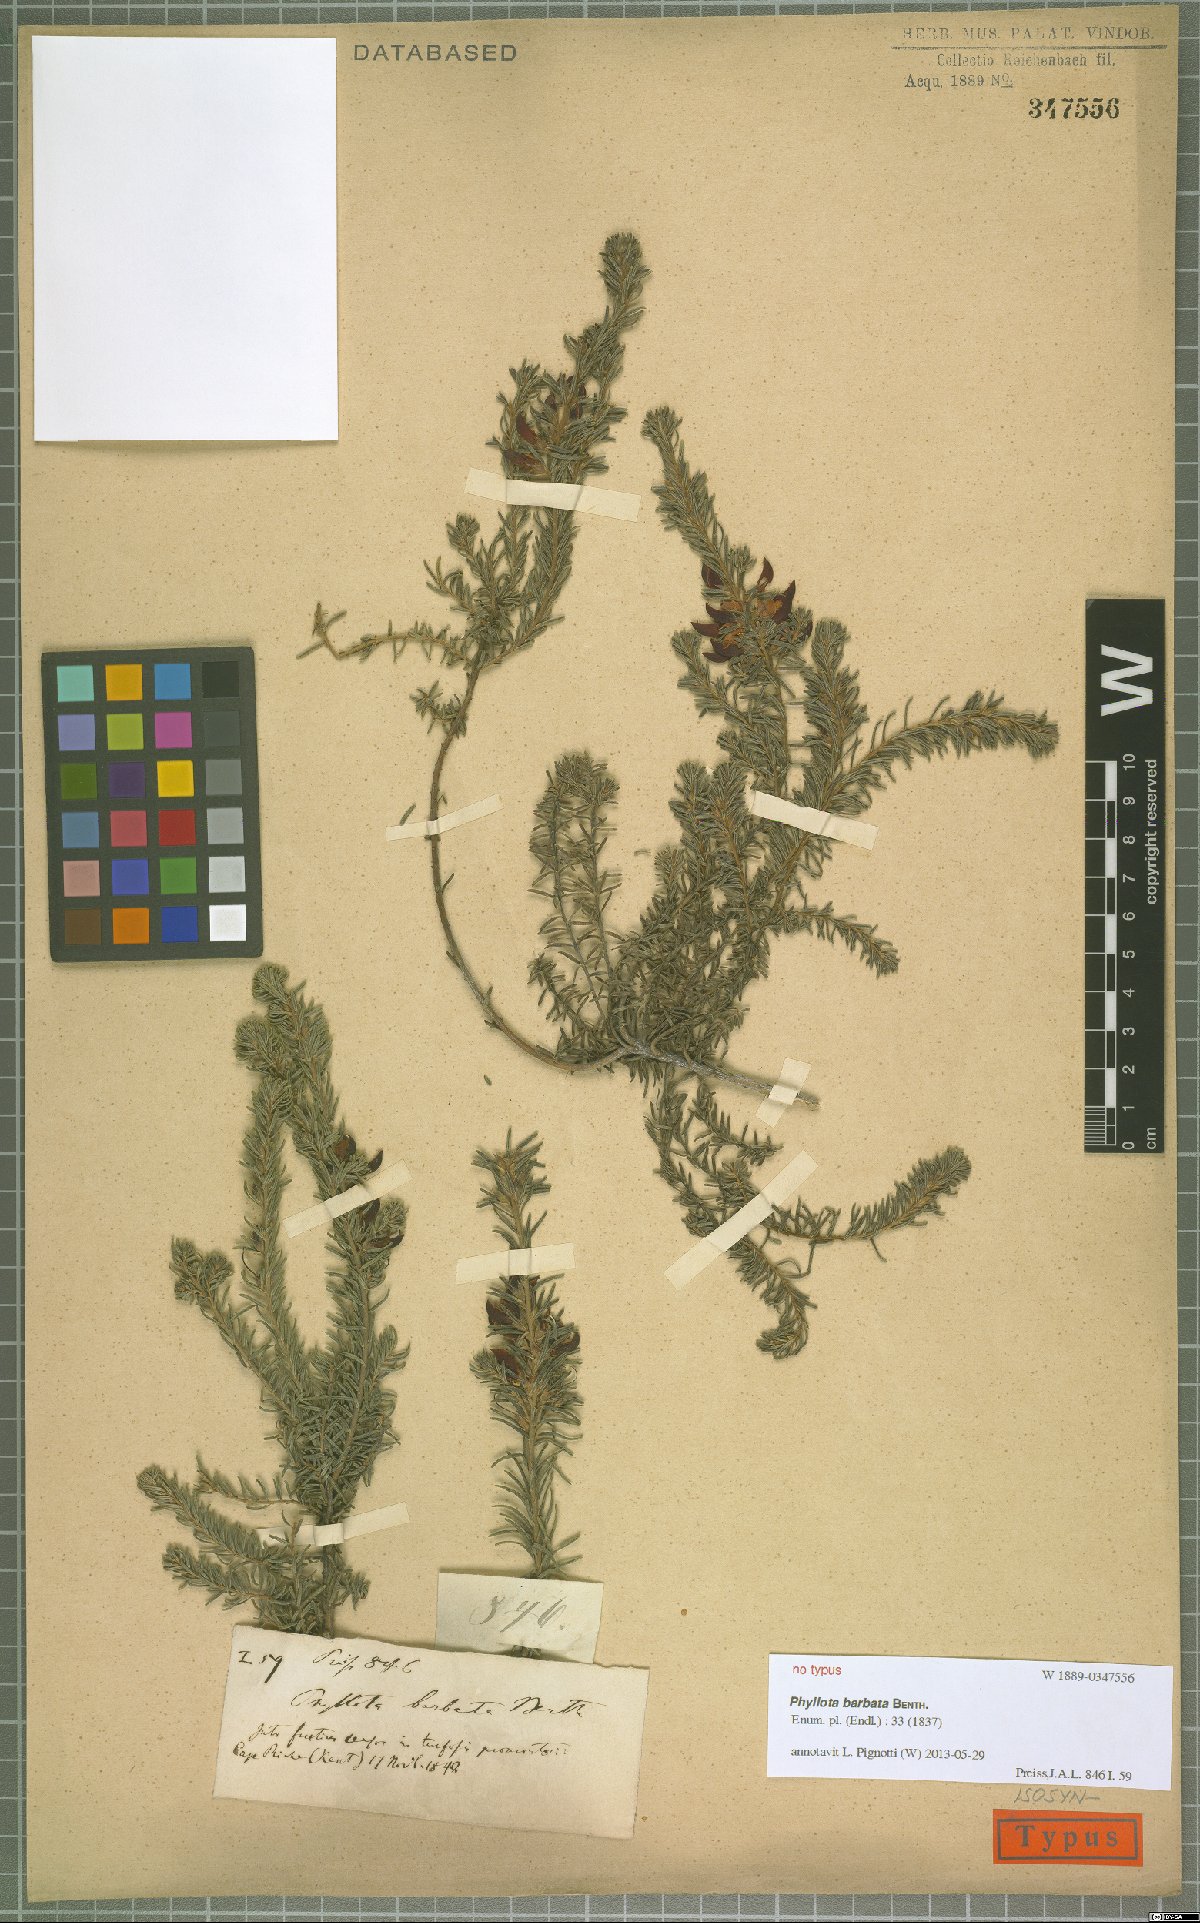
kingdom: Plantae
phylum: Tracheophyta
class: Magnoliopsida
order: Fabales
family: Fabaceae
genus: Phyllota
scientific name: Phyllota barbata
